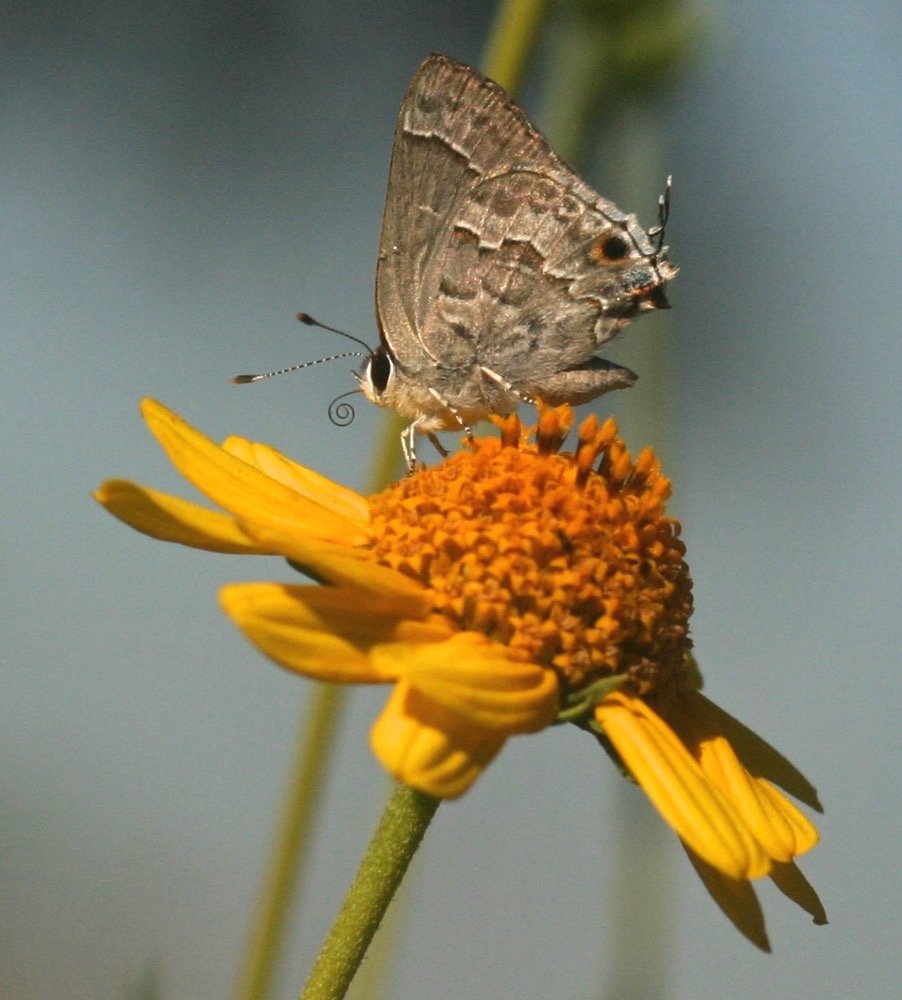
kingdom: Animalia
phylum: Arthropoda
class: Insecta
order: Lepidoptera
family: Lycaenidae
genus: Strymon
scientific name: Strymon alea
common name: Lacey's Scrub-Hairstreak
